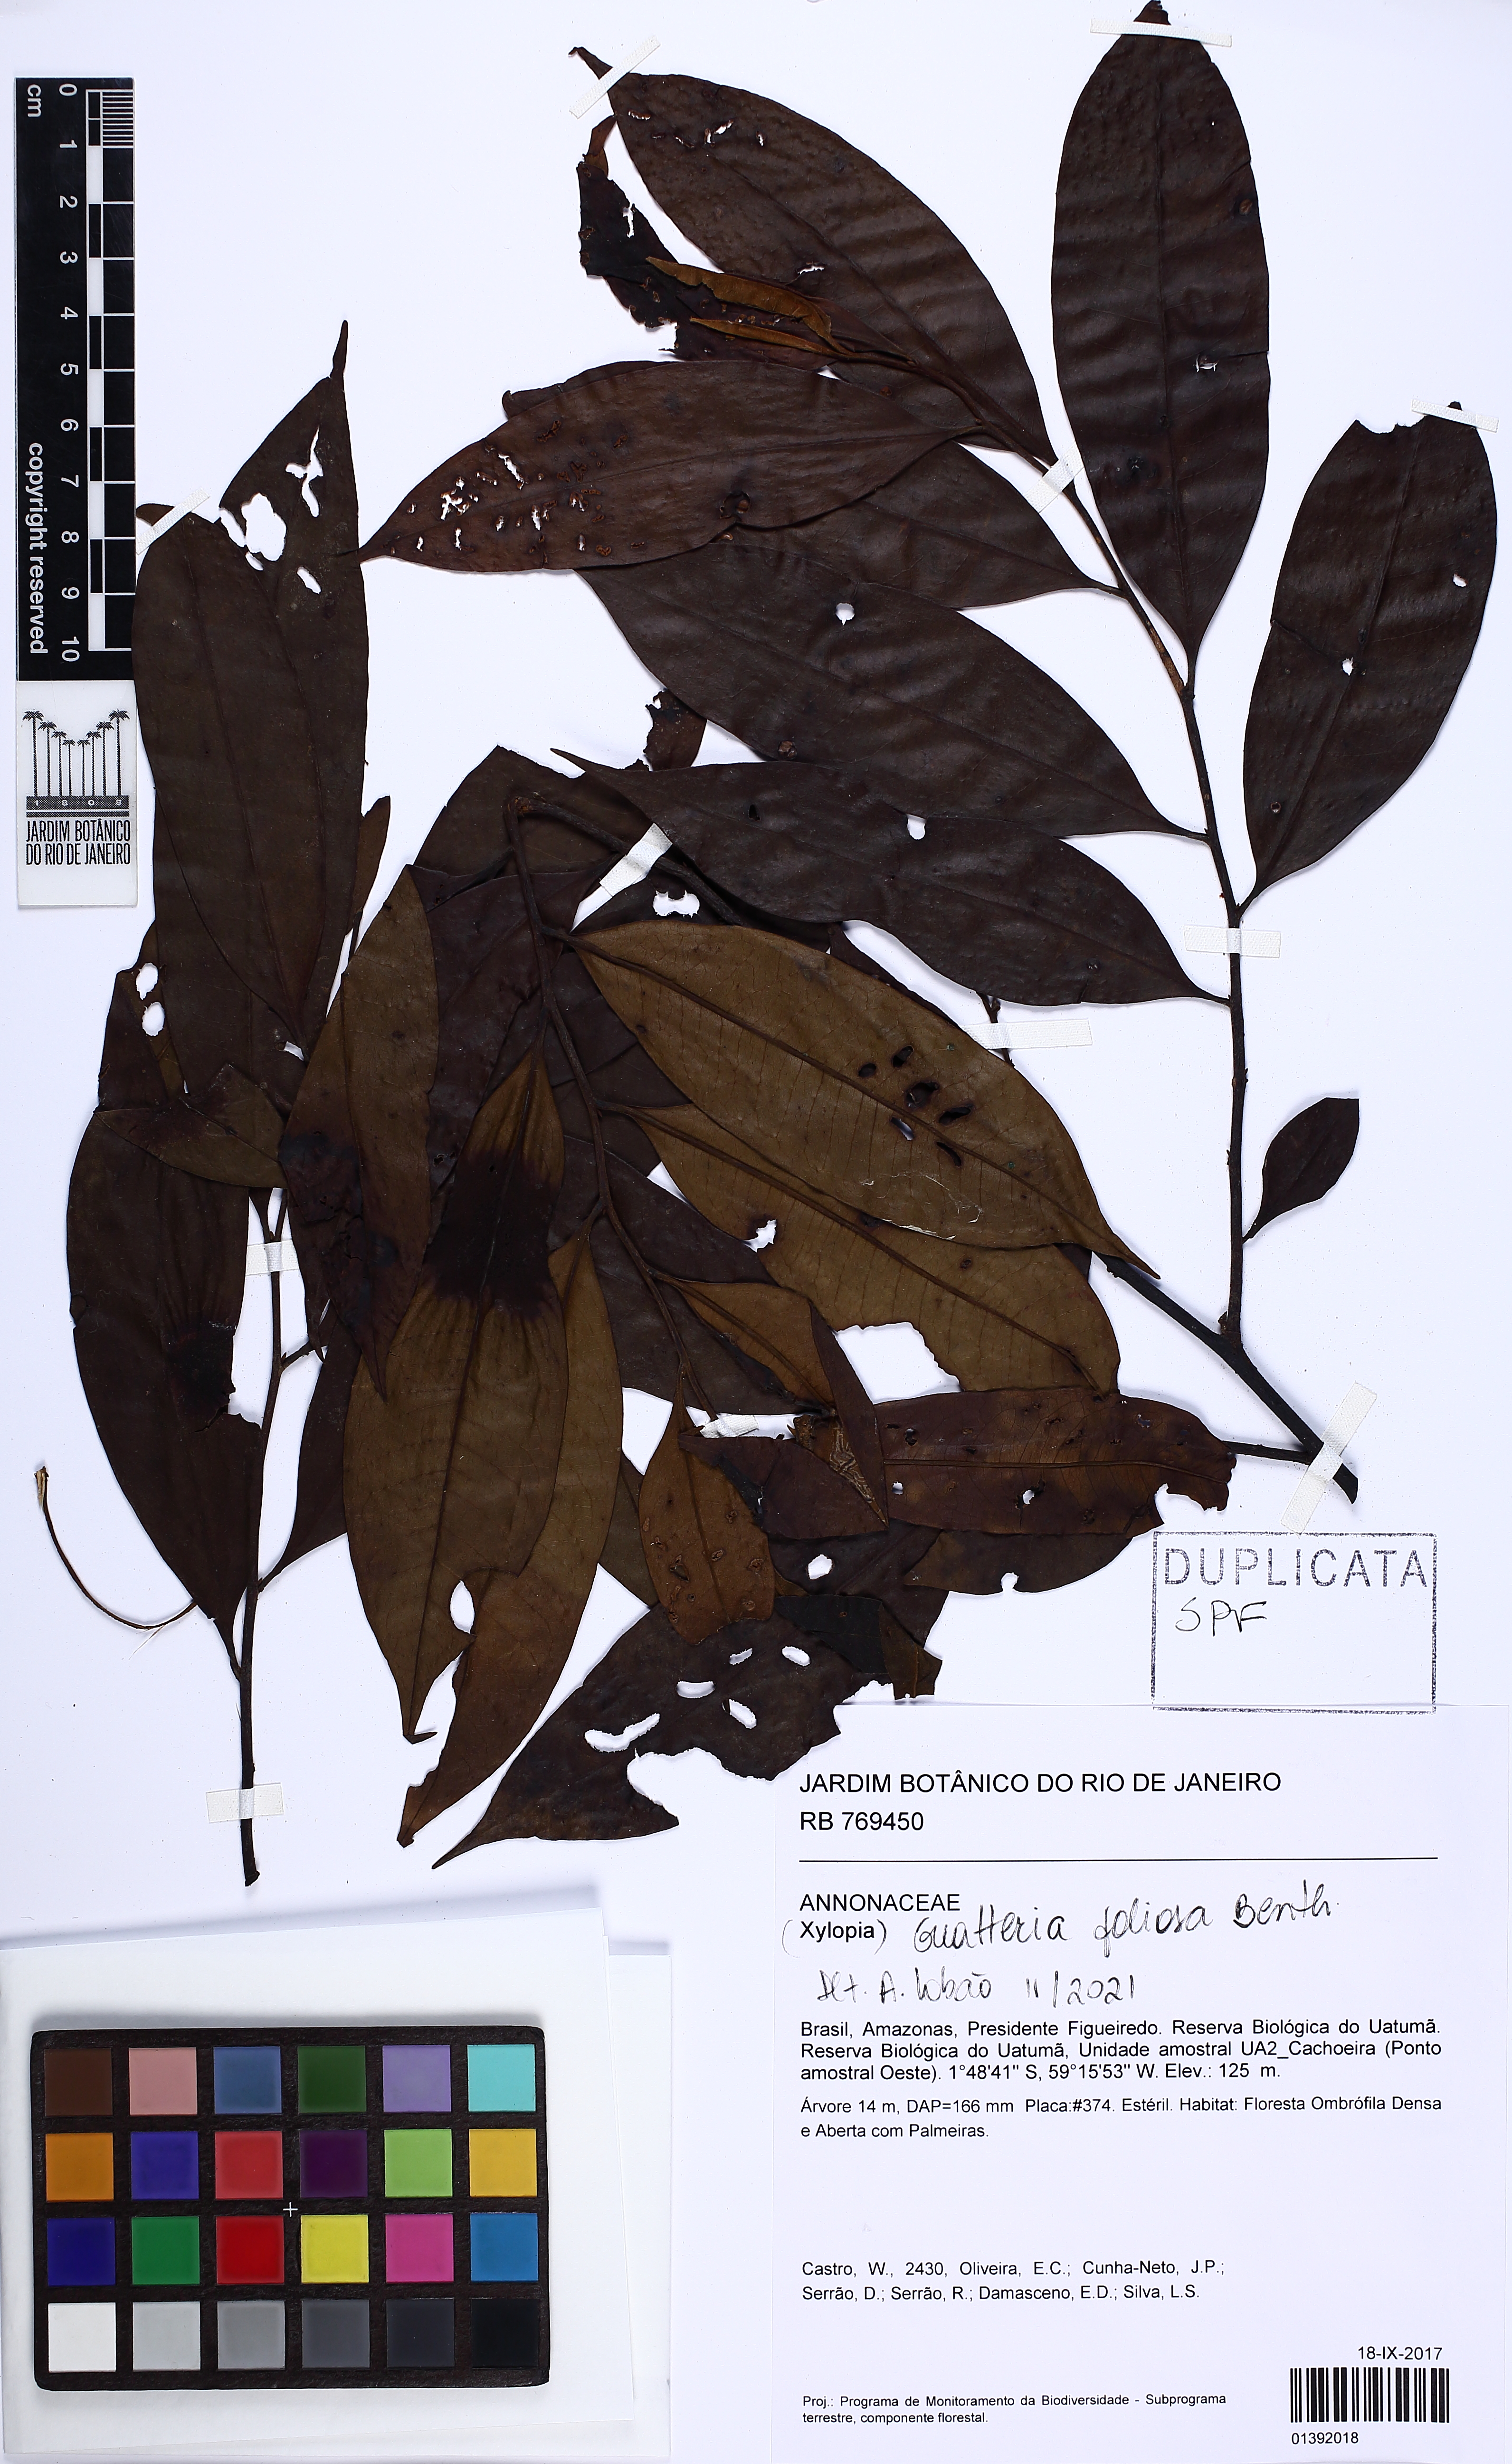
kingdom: Plantae
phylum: Tracheophyta
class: Magnoliopsida
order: Magnoliales
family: Annonaceae
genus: Guatteria
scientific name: Guatteria foliosa
